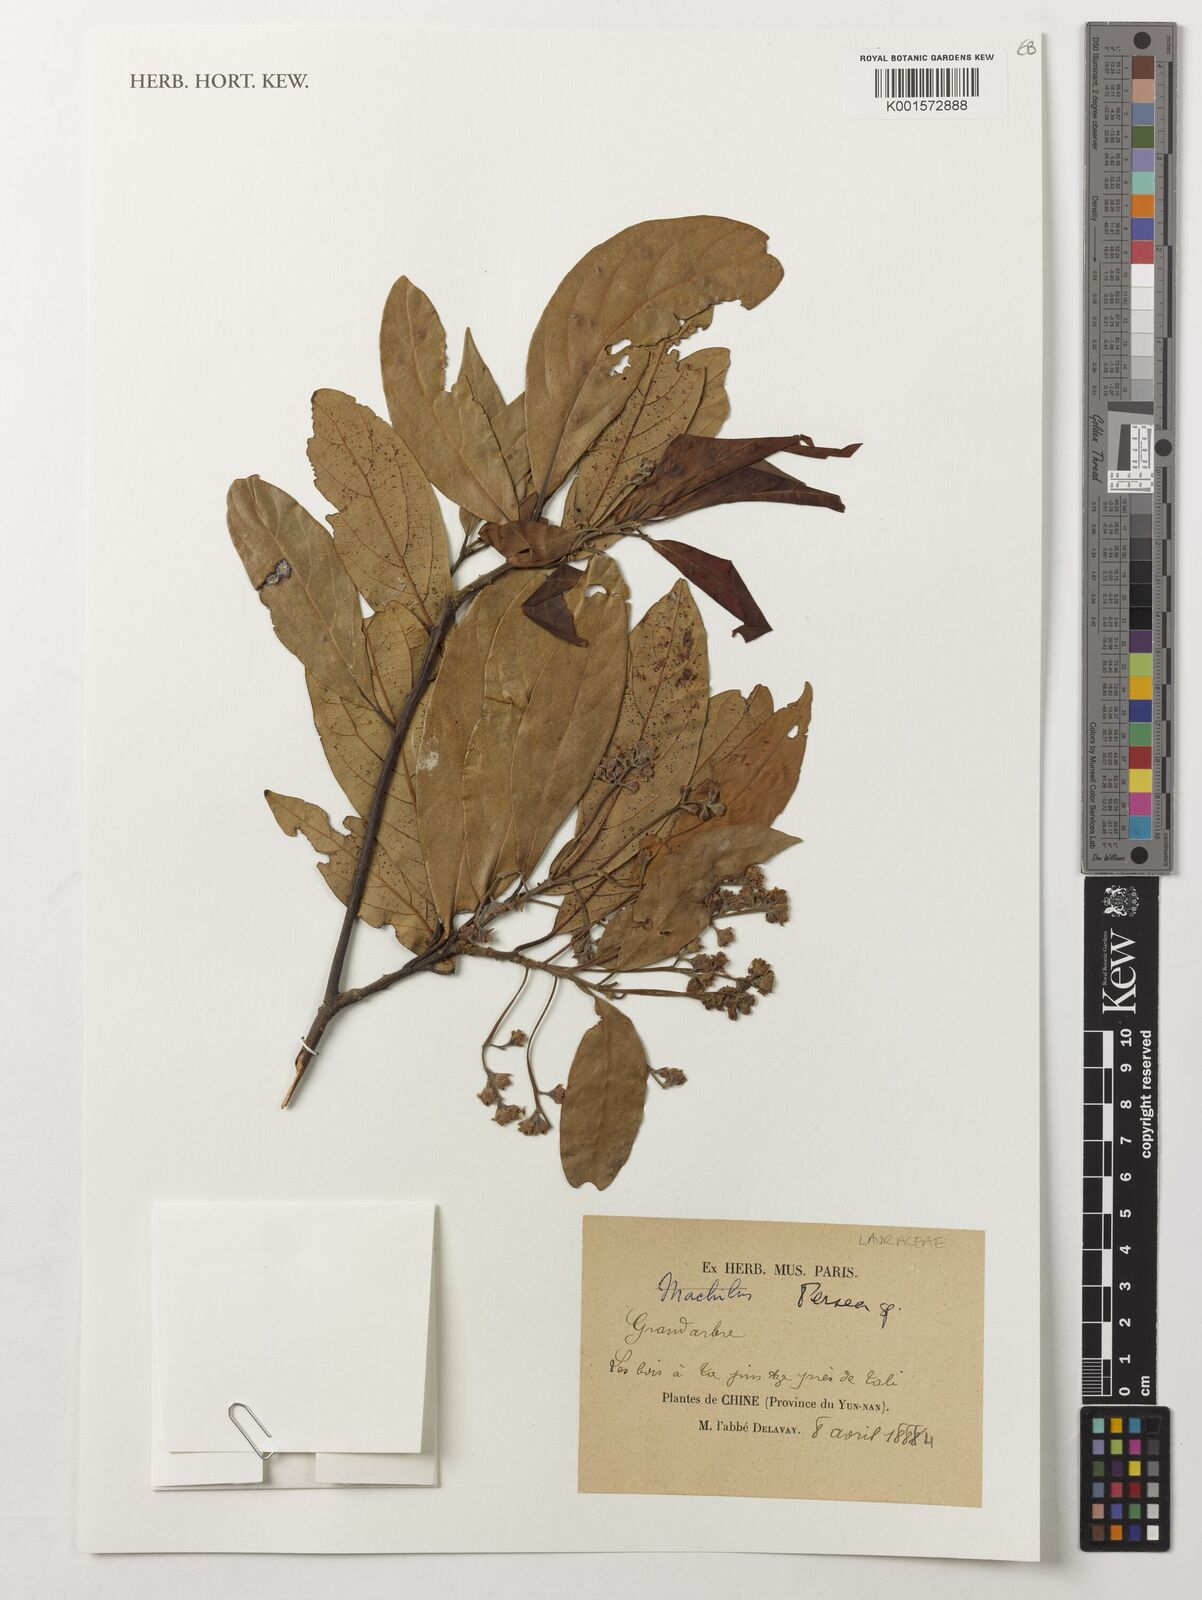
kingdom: Plantae
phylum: Tracheophyta
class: Magnoliopsida
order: Laurales
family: Lauraceae
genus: Persea
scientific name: Persea
